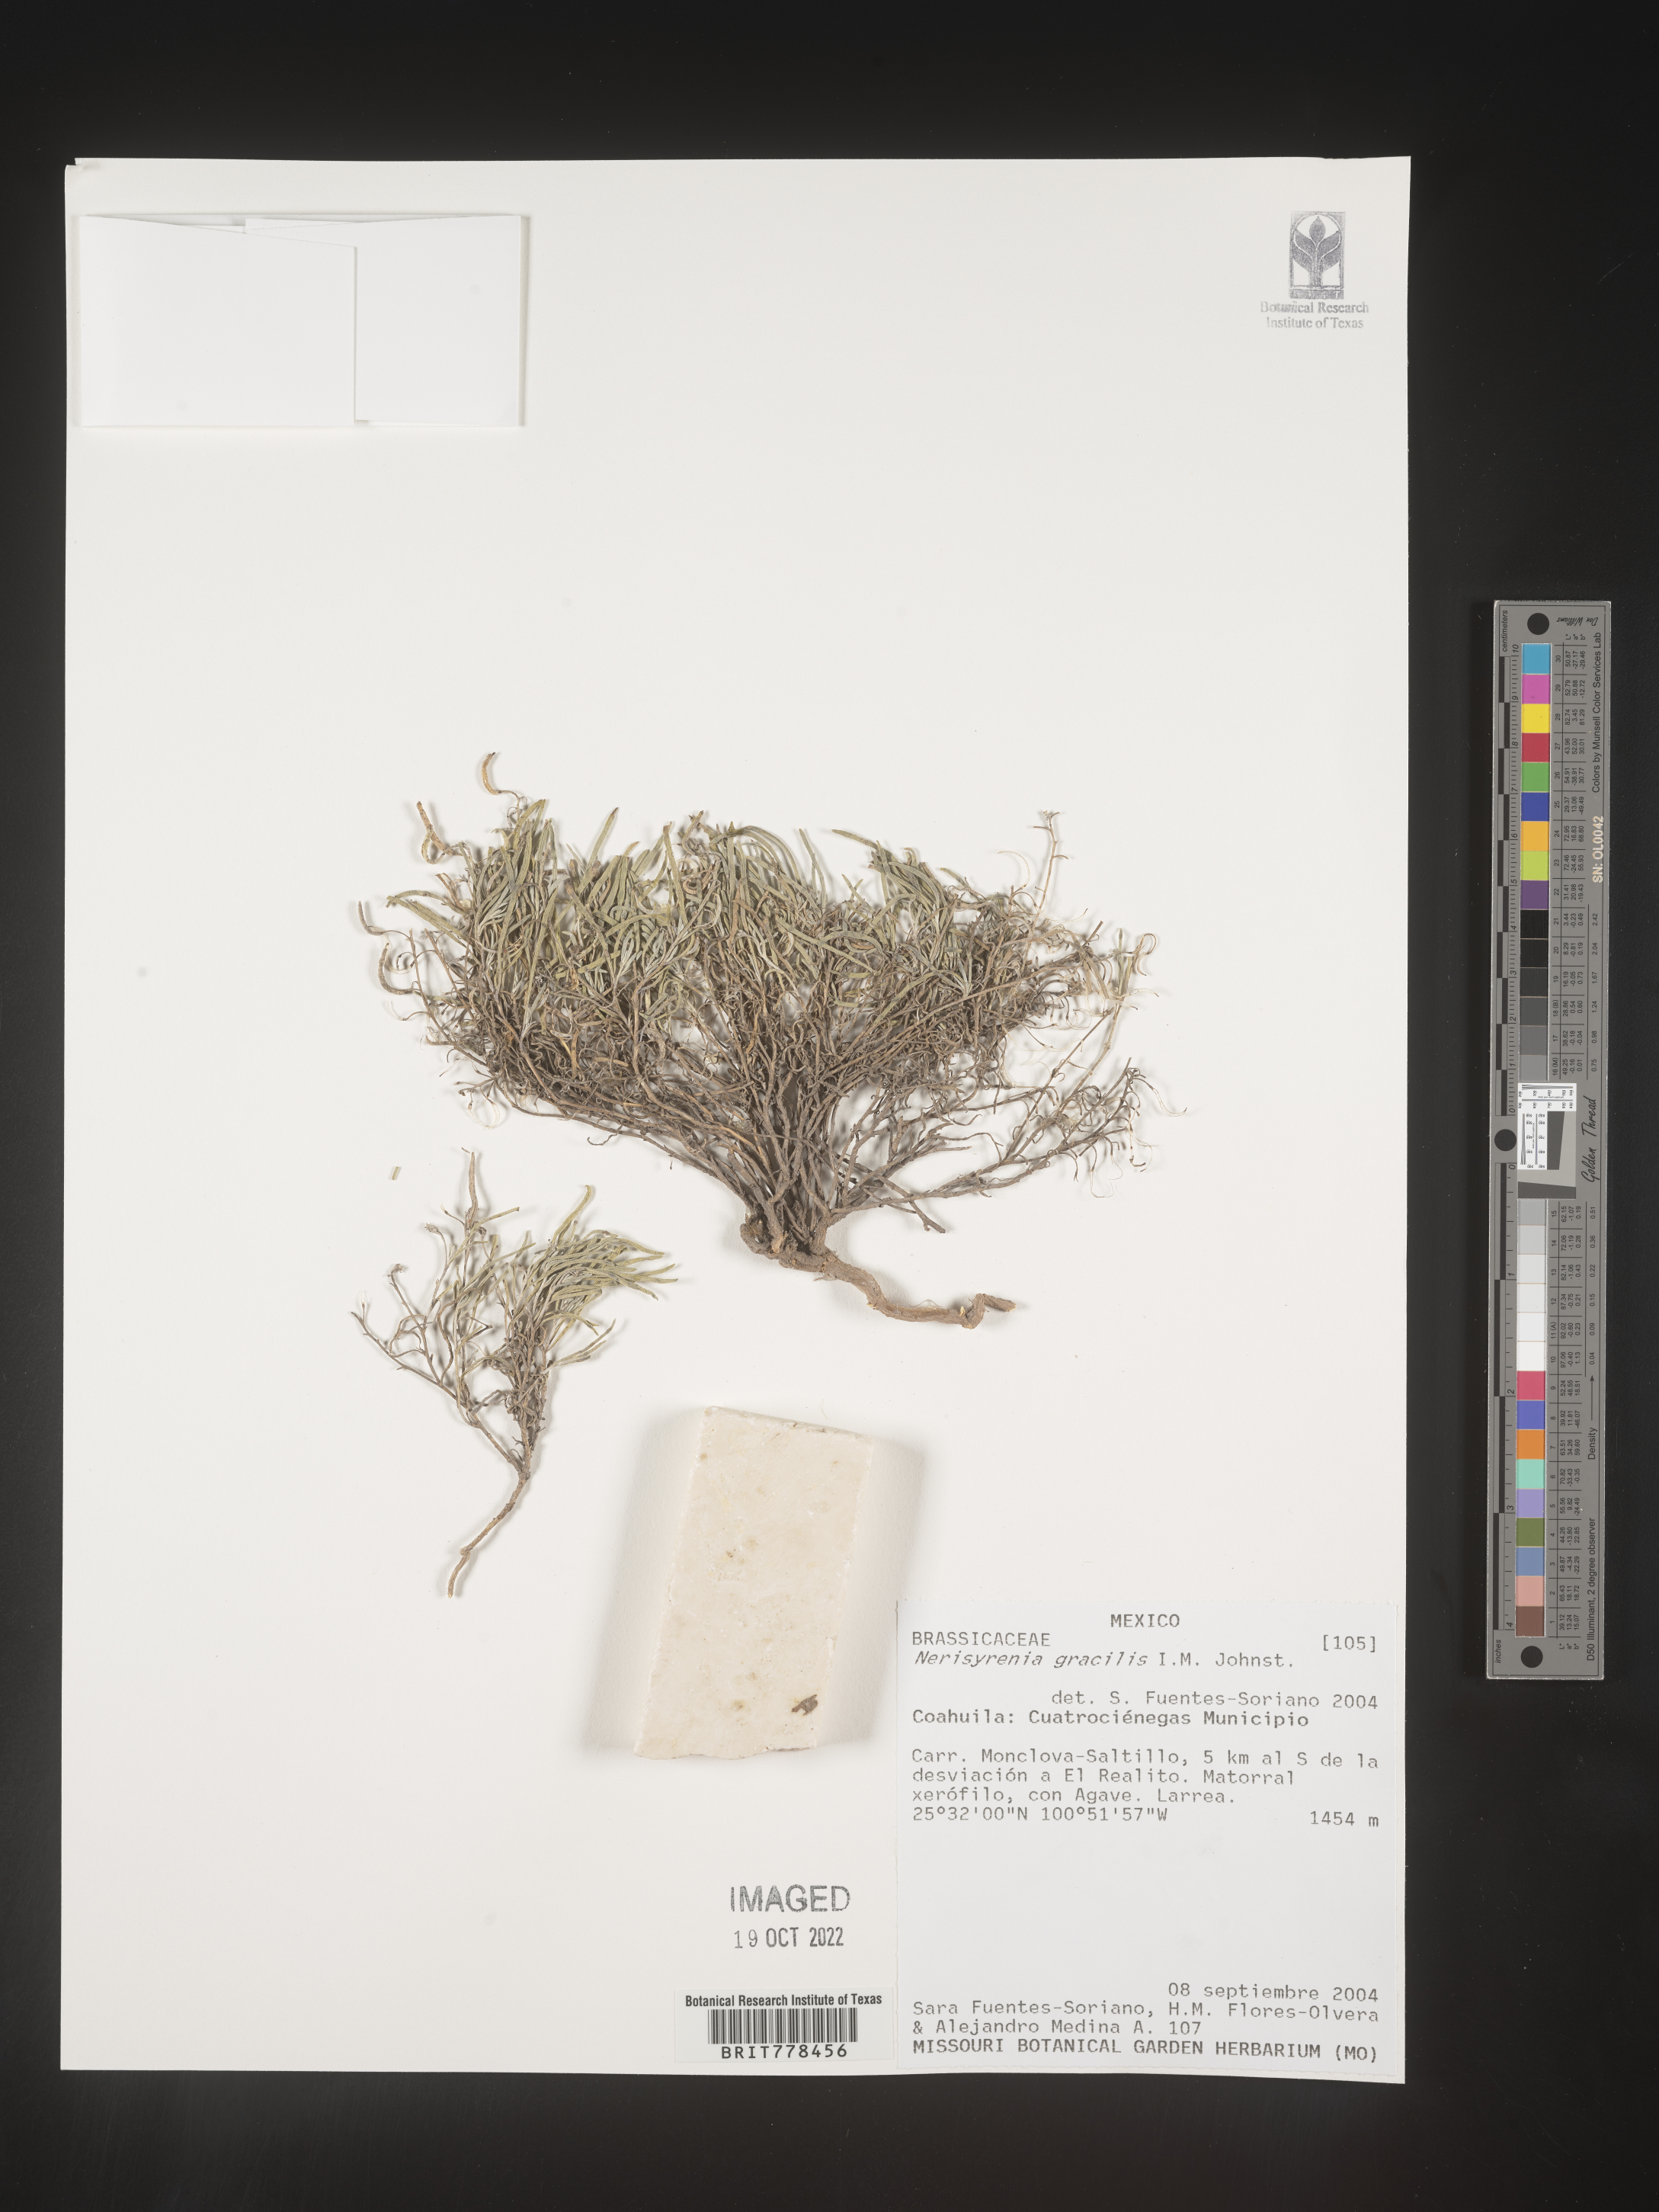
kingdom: Plantae
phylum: Tracheophyta
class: Magnoliopsida
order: Brassicales
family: Brassicaceae
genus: Nerisyrenia
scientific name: Nerisyrenia
